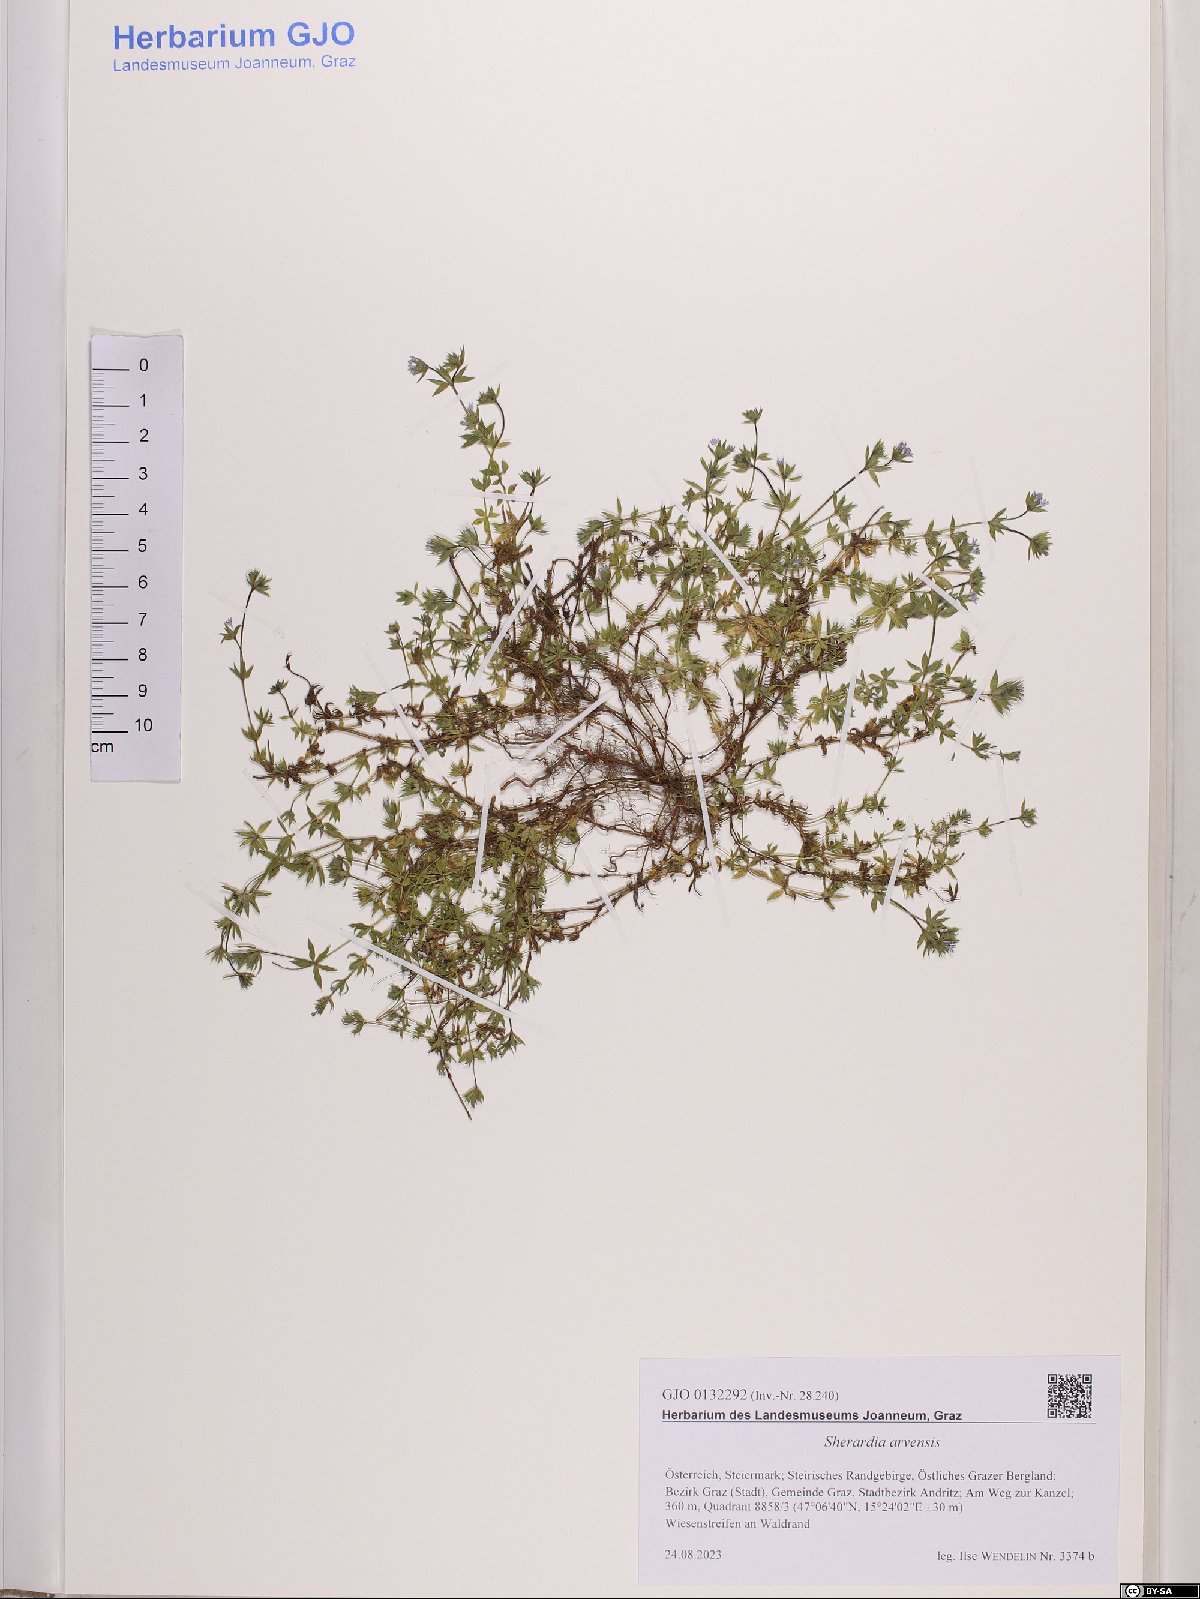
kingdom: Plantae
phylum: Tracheophyta
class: Magnoliopsida
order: Gentianales
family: Rubiaceae
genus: Sherardia
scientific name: Sherardia arvensis
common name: Field madder
